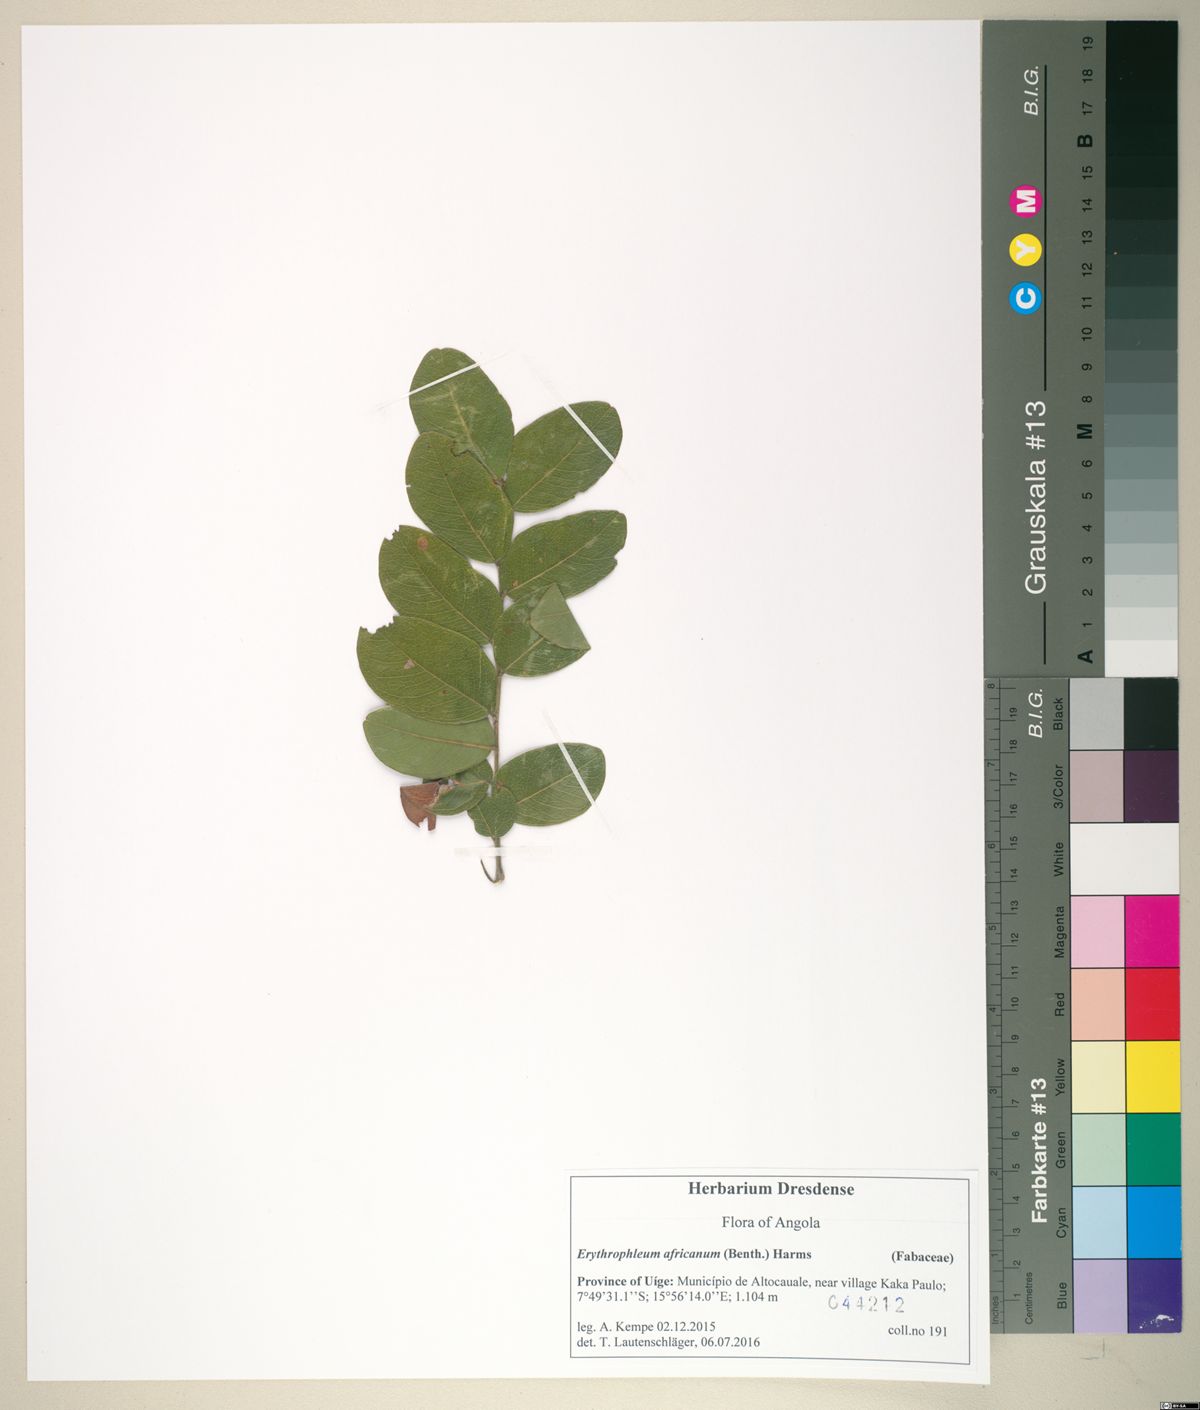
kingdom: Plantae
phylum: Tracheophyta
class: Magnoliopsida
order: Fabales
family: Fabaceae
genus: Erythrophleum
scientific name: Erythrophleum africanum
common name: African blackwood
